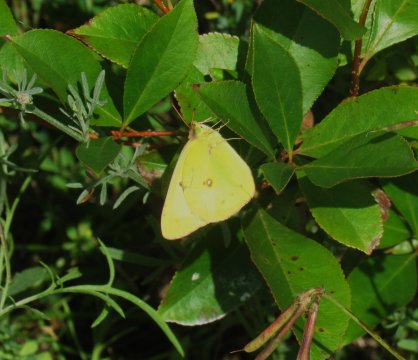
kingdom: Animalia
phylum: Arthropoda
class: Insecta
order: Lepidoptera
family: Pieridae
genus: Colias
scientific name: Colias philodice
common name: Clouded Sulphur
